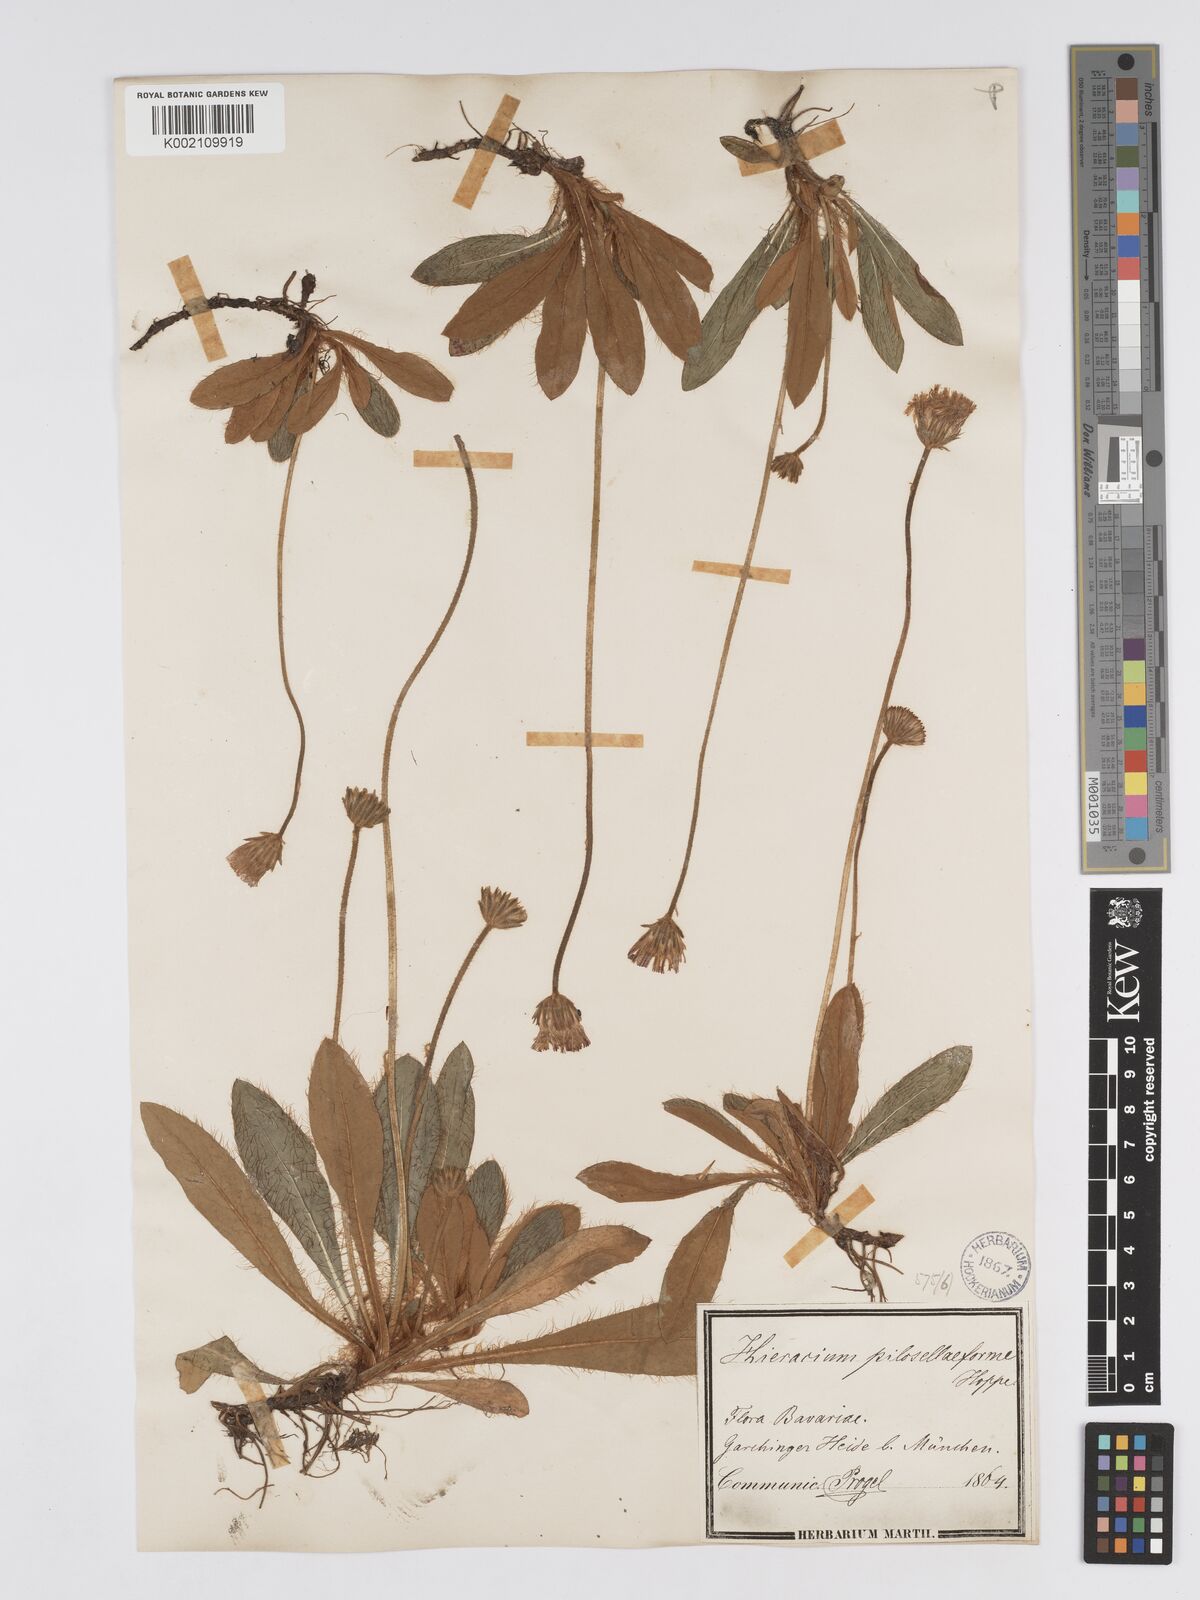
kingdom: Plantae
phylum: Tracheophyta
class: Magnoliopsida
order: Asterales
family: Asteraceae
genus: Pilosella
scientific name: Pilosella leucopsilon
